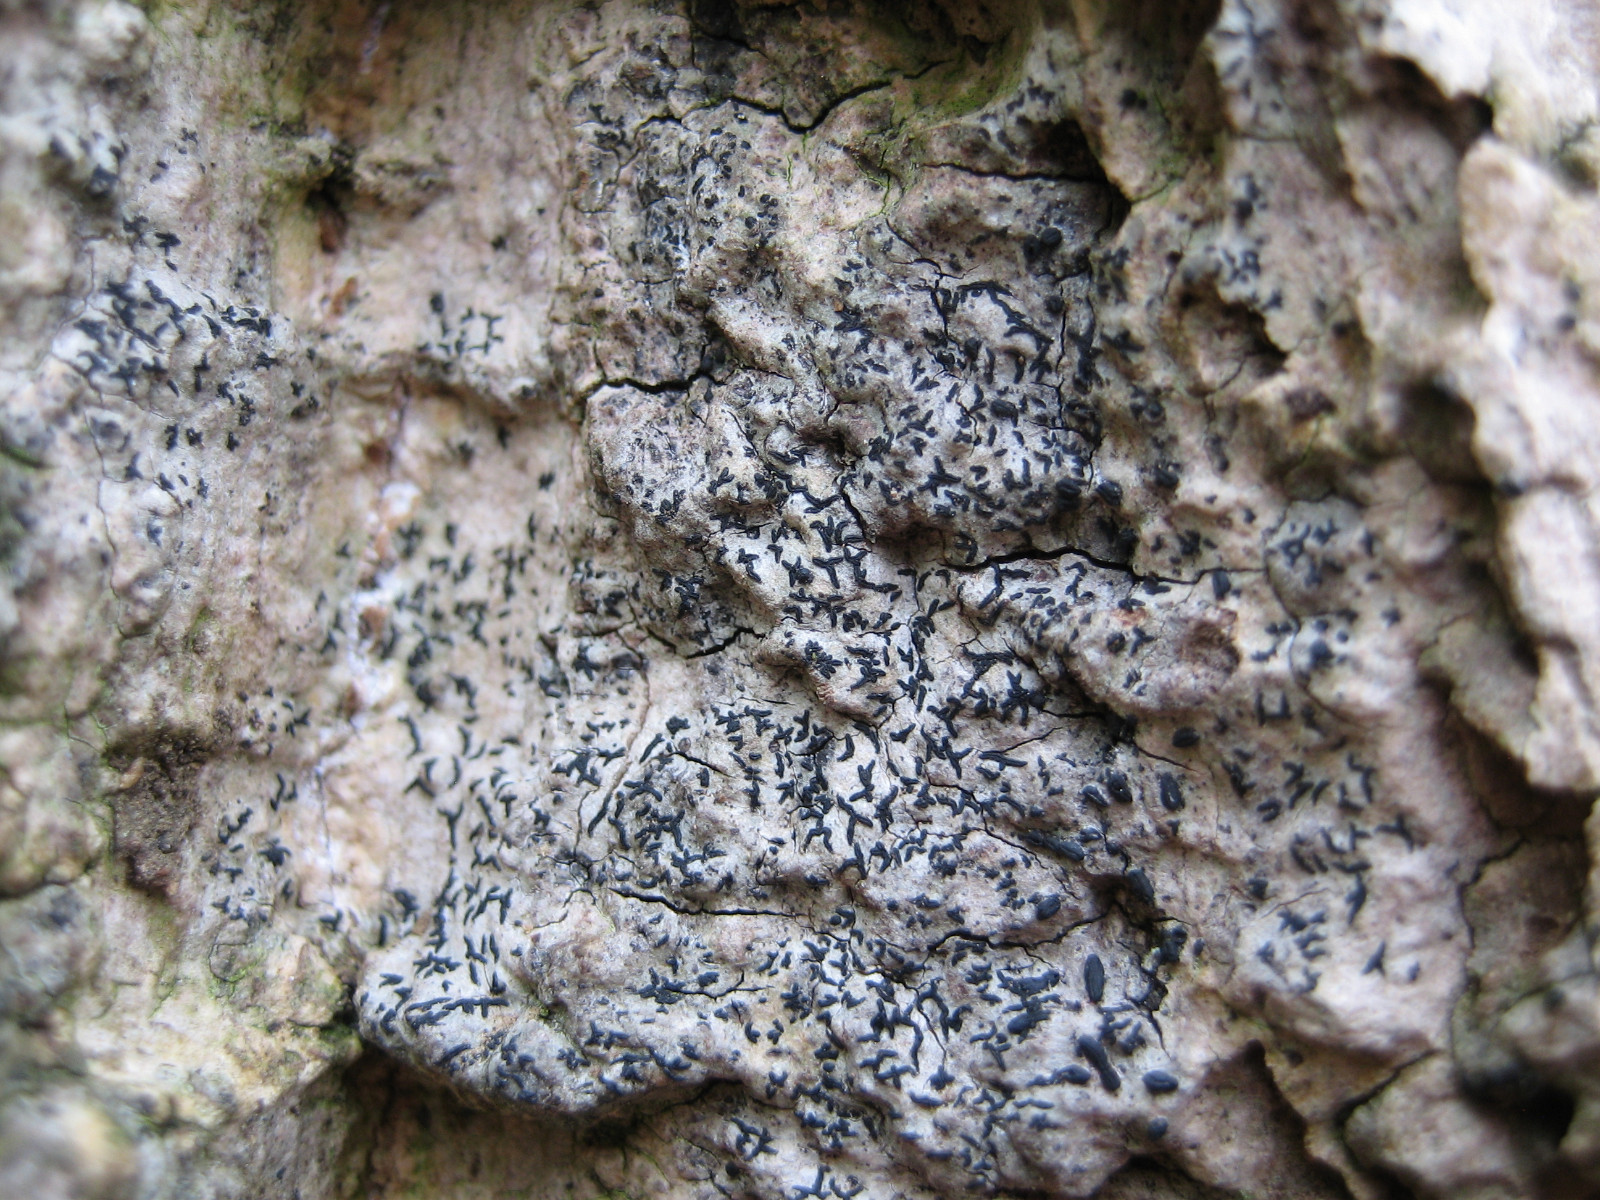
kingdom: Fungi
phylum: Ascomycota
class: Arthoniomycetes
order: Arthoniales
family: Arthoniaceae
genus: Arthonia
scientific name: Arthonia atra
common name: sort bogstavlav
